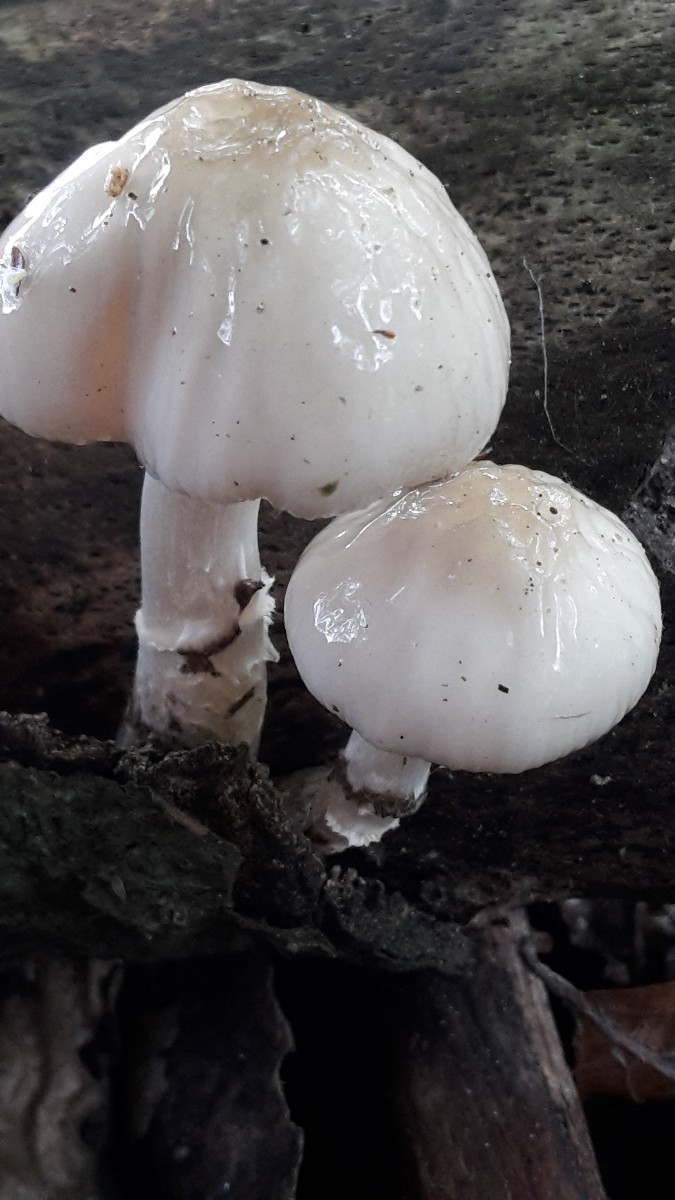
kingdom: Fungi
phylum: Basidiomycota
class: Agaricomycetes
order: Agaricales
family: Physalacriaceae
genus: Mucidula
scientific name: Mucidula mucida
